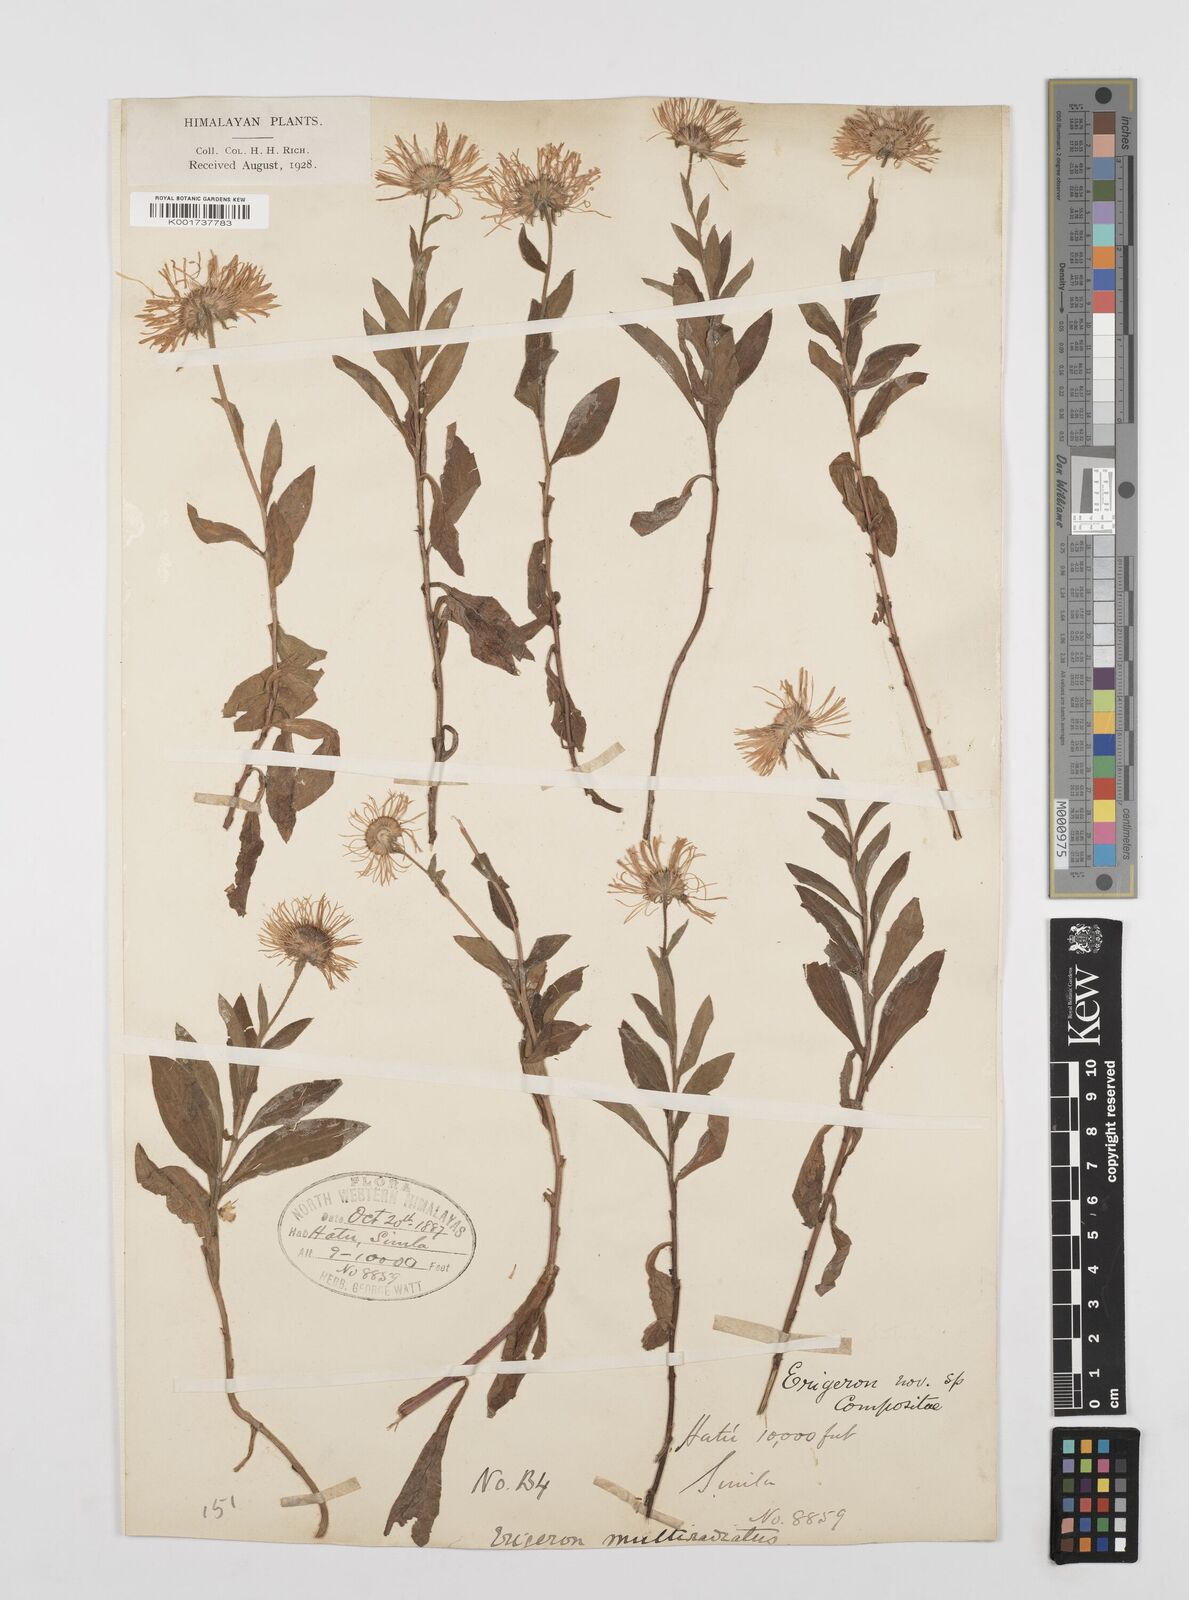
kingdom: Plantae
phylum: Tracheophyta
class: Magnoliopsida
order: Asterales
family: Asteraceae
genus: Erigeron
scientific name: Erigeron multiradiatus
